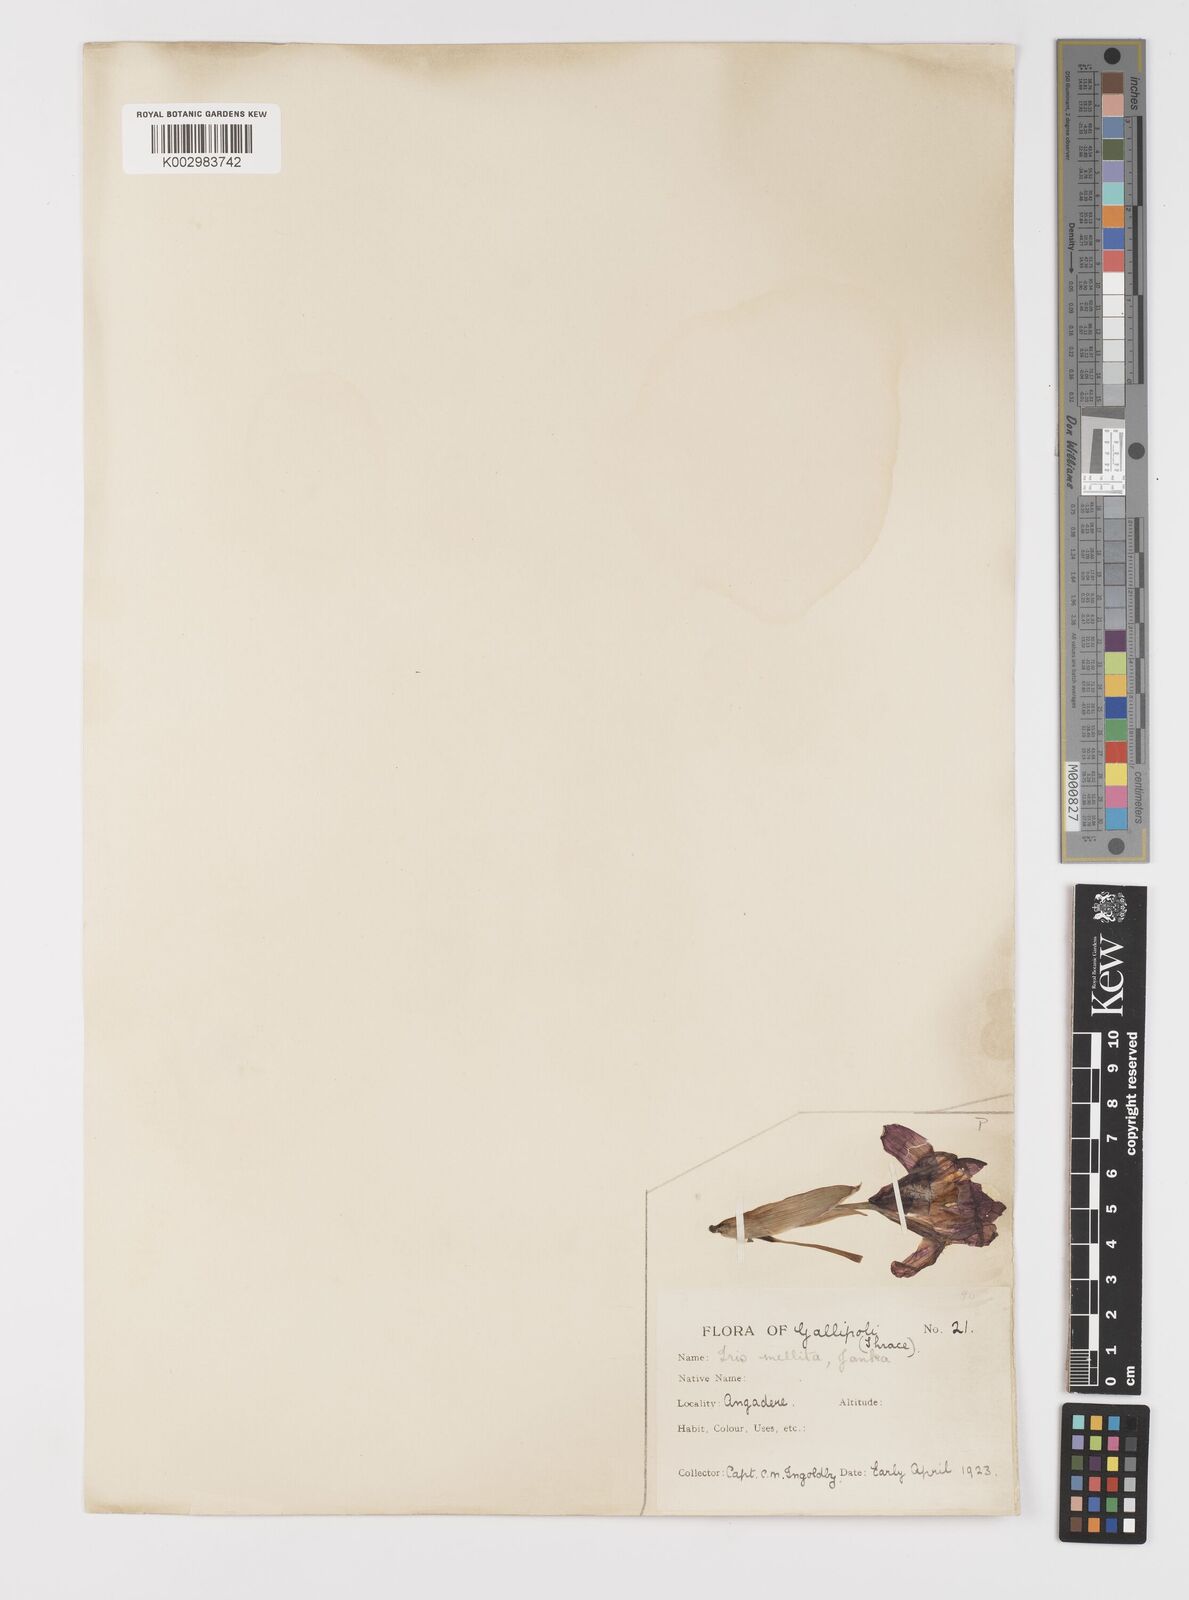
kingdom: Plantae
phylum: Tracheophyta
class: Liliopsida
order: Asparagales
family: Iridaceae
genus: Iris
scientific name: Iris suaveolens
